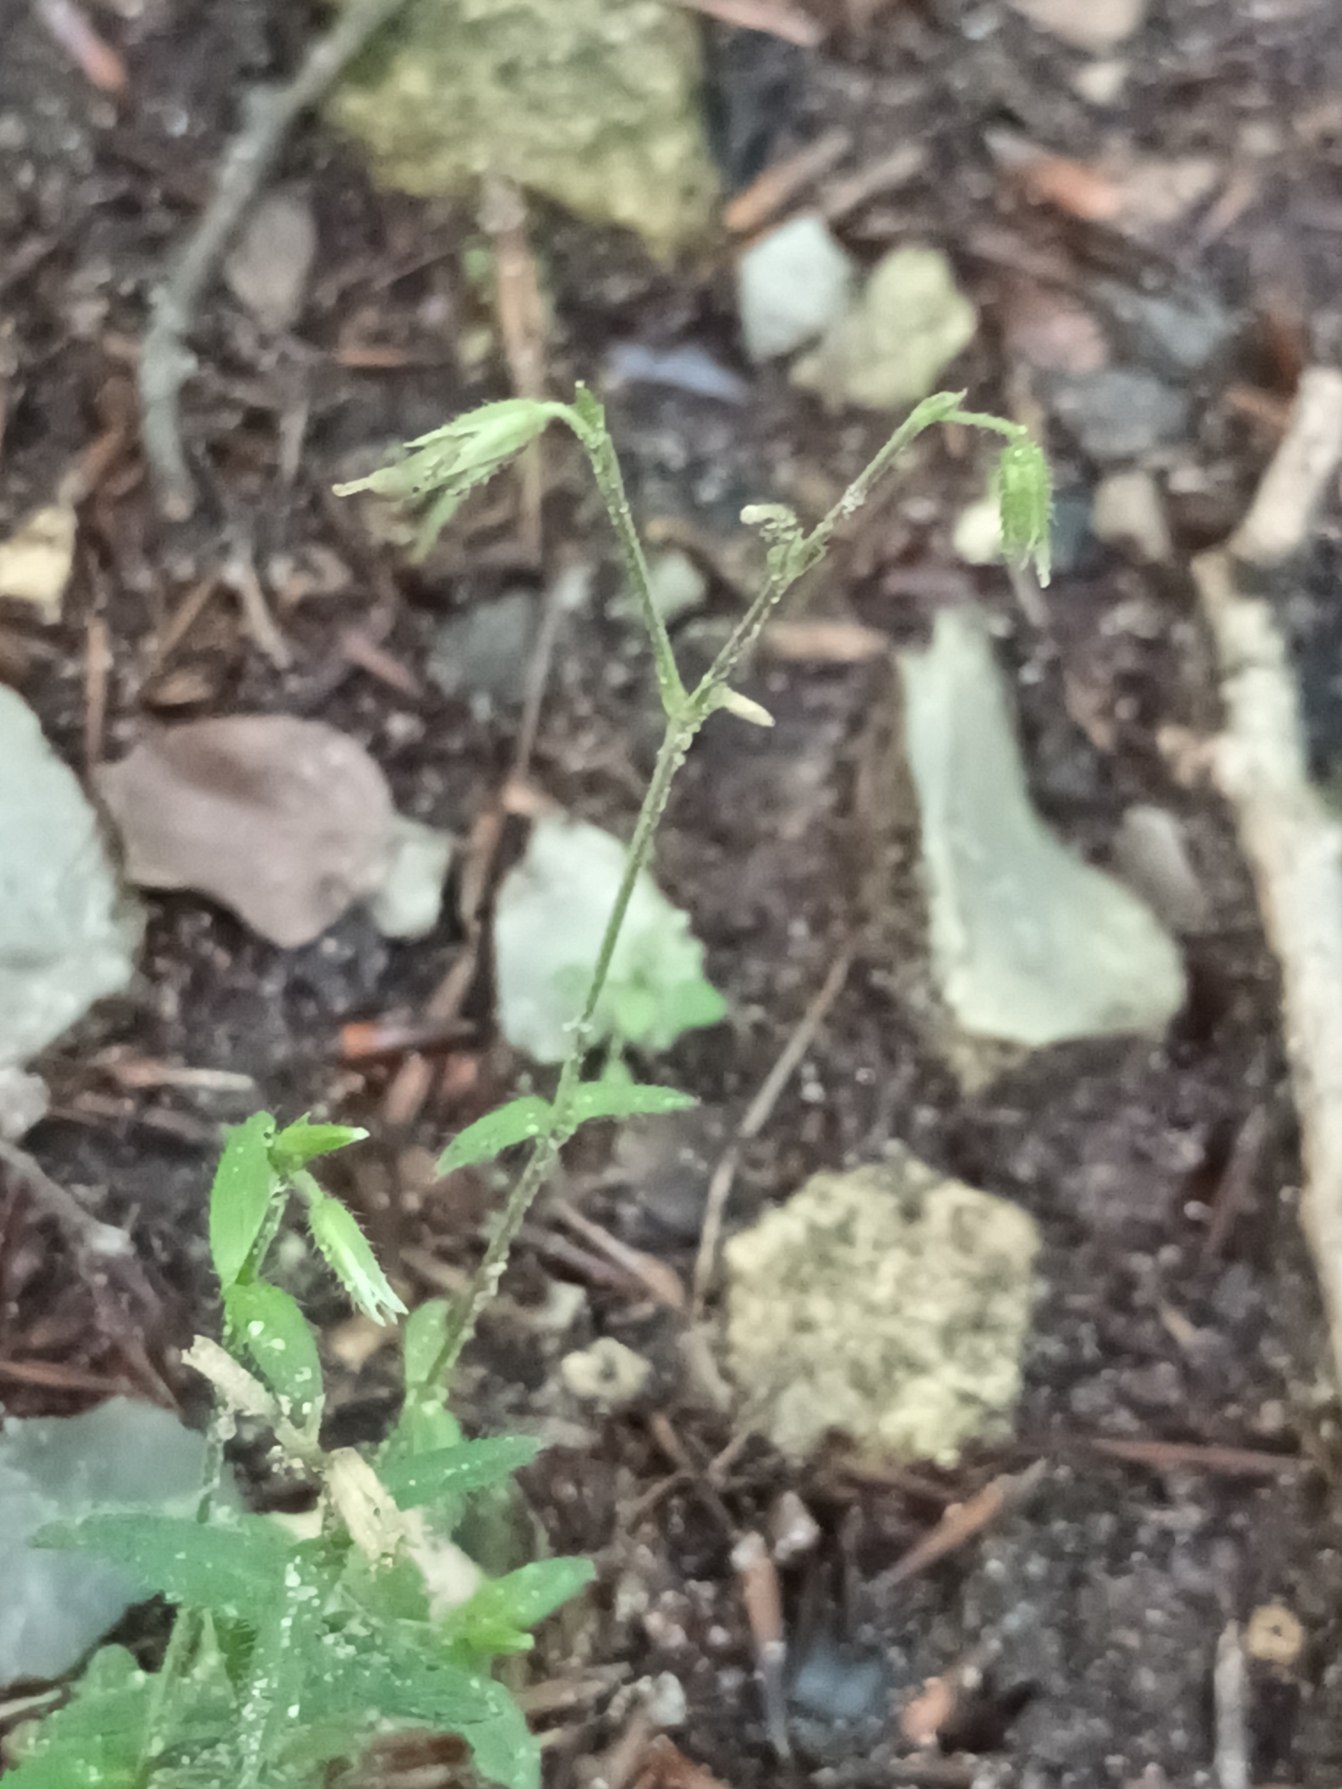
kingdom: Plantae
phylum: Tracheophyta
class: Magnoliopsida
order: Caryophyllales
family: Caryophyllaceae
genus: Cerastium
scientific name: Cerastium fontanum
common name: Almindelig hønsetarm
